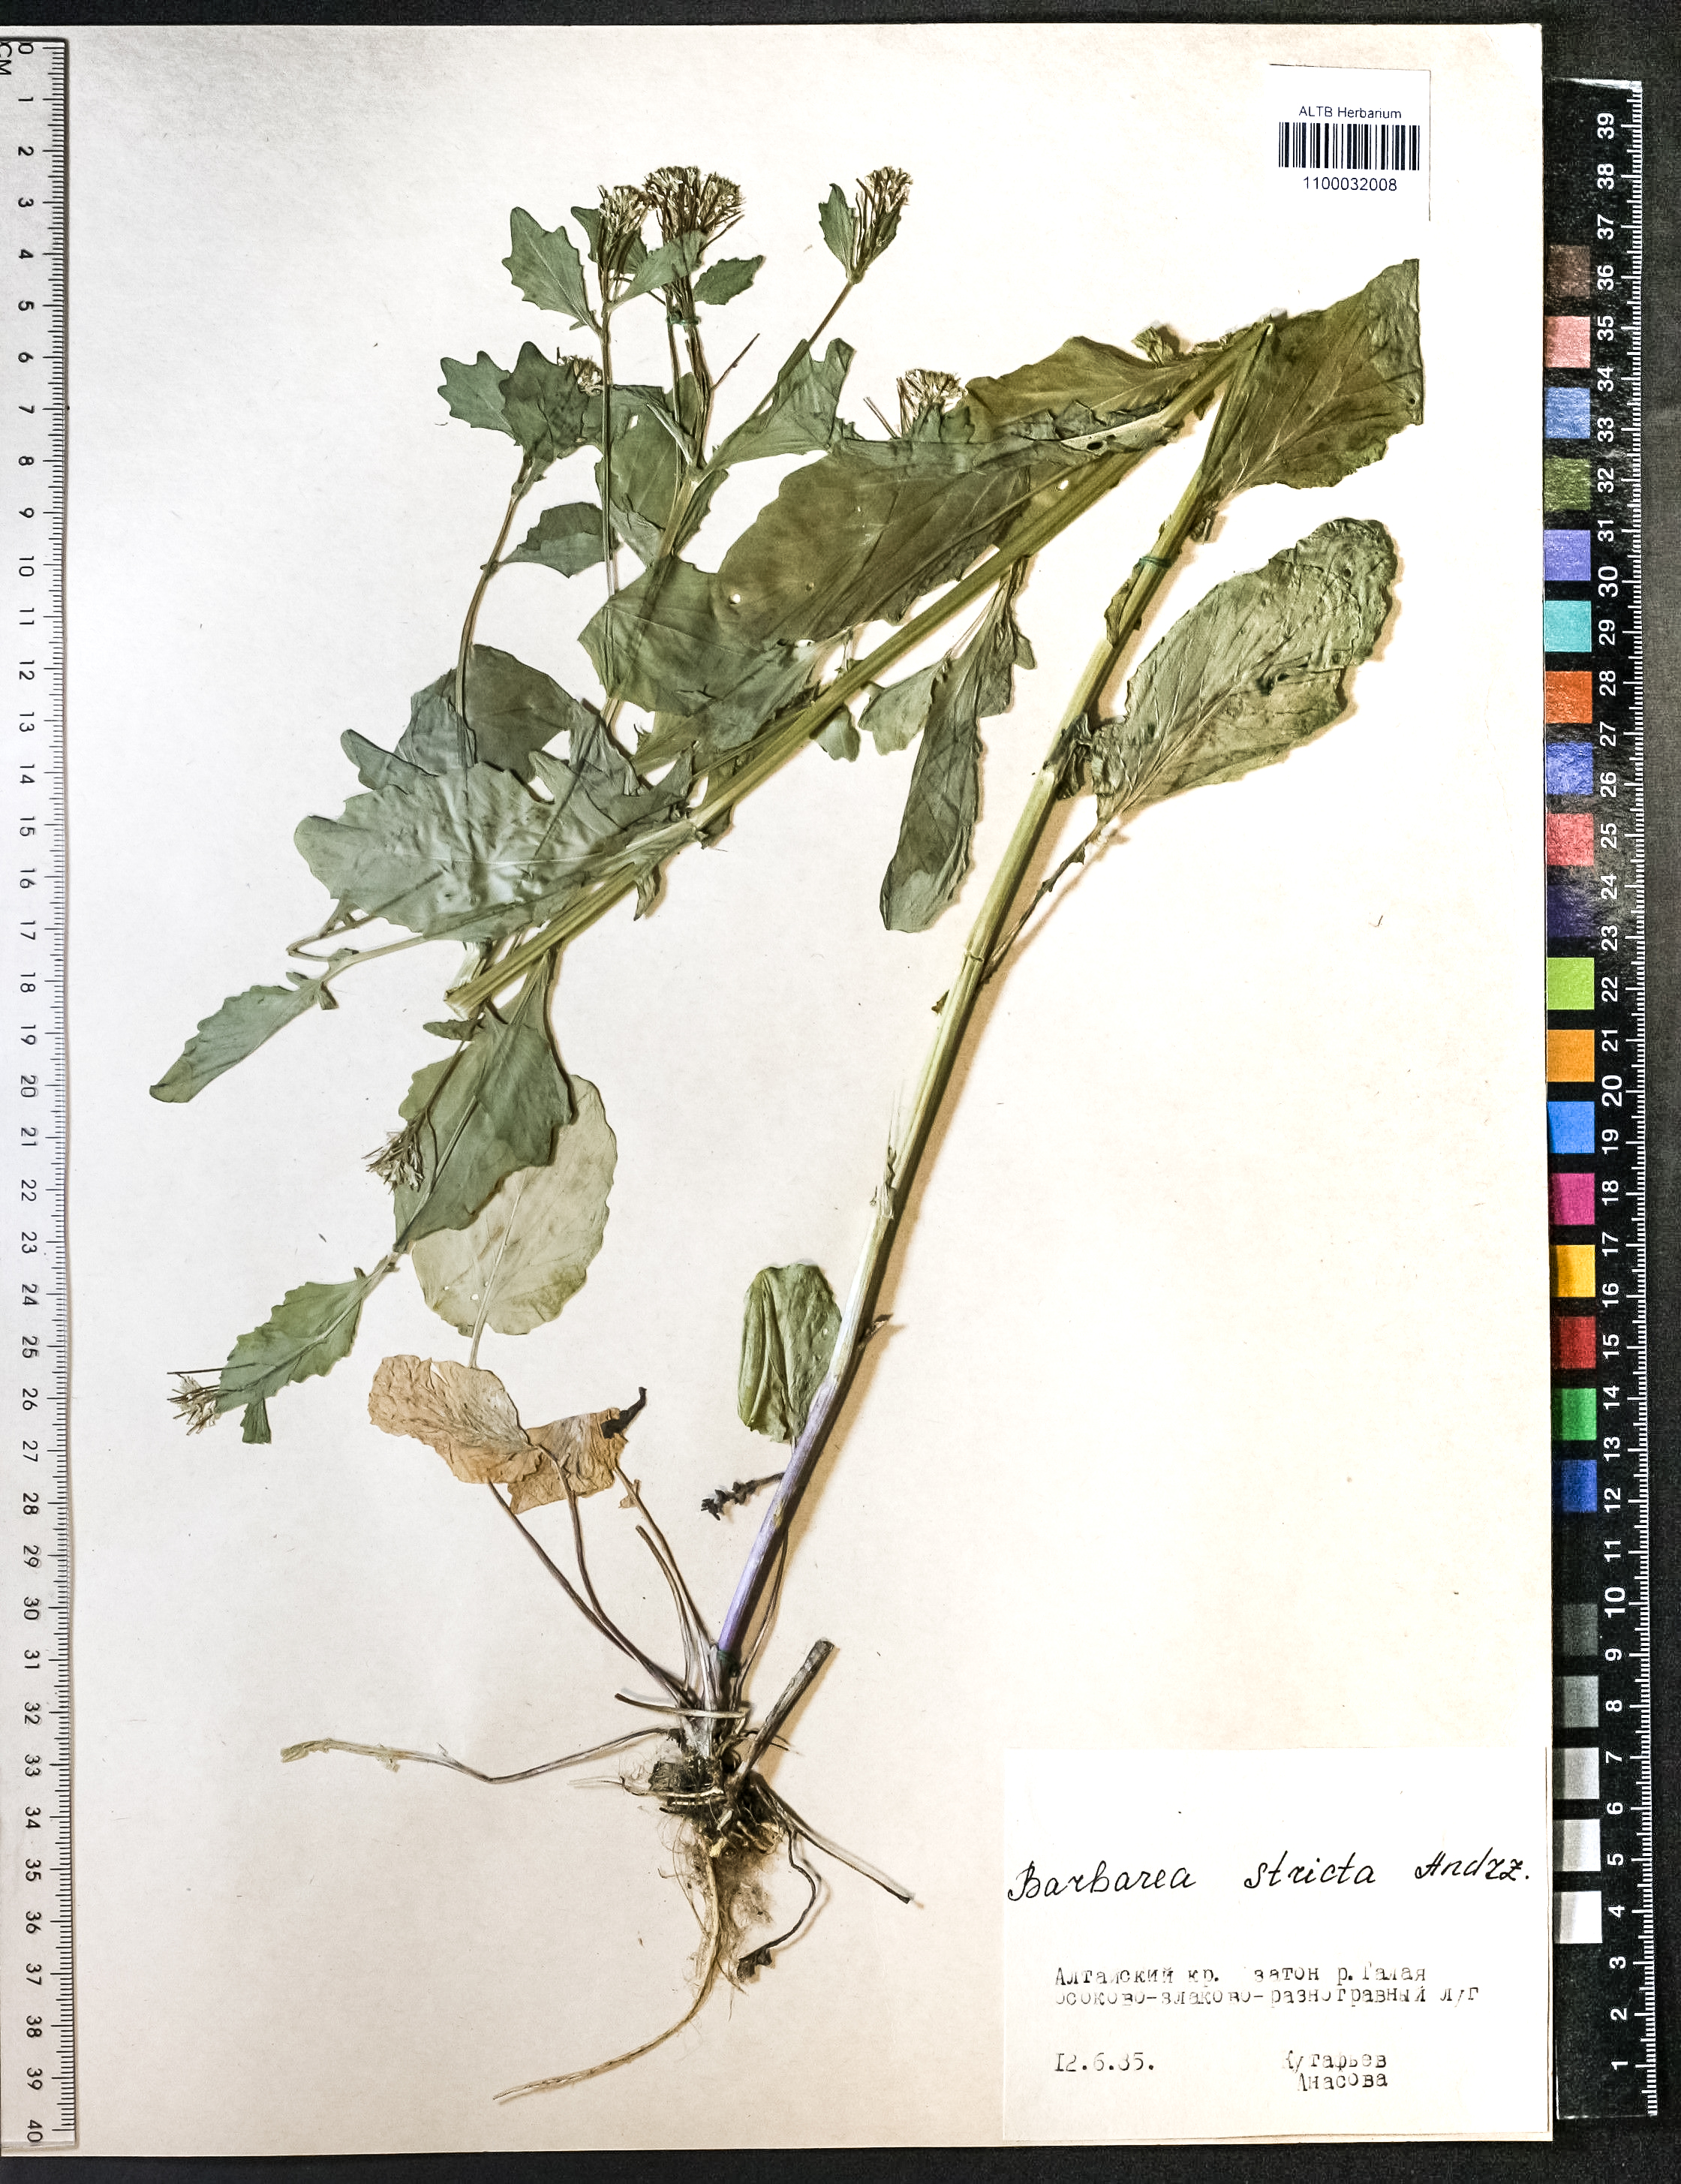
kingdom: Plantae
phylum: Tracheophyta
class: Magnoliopsida
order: Brassicales
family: Brassicaceae
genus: Barbarea
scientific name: Barbarea vulgaris
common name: Cressy-greens
